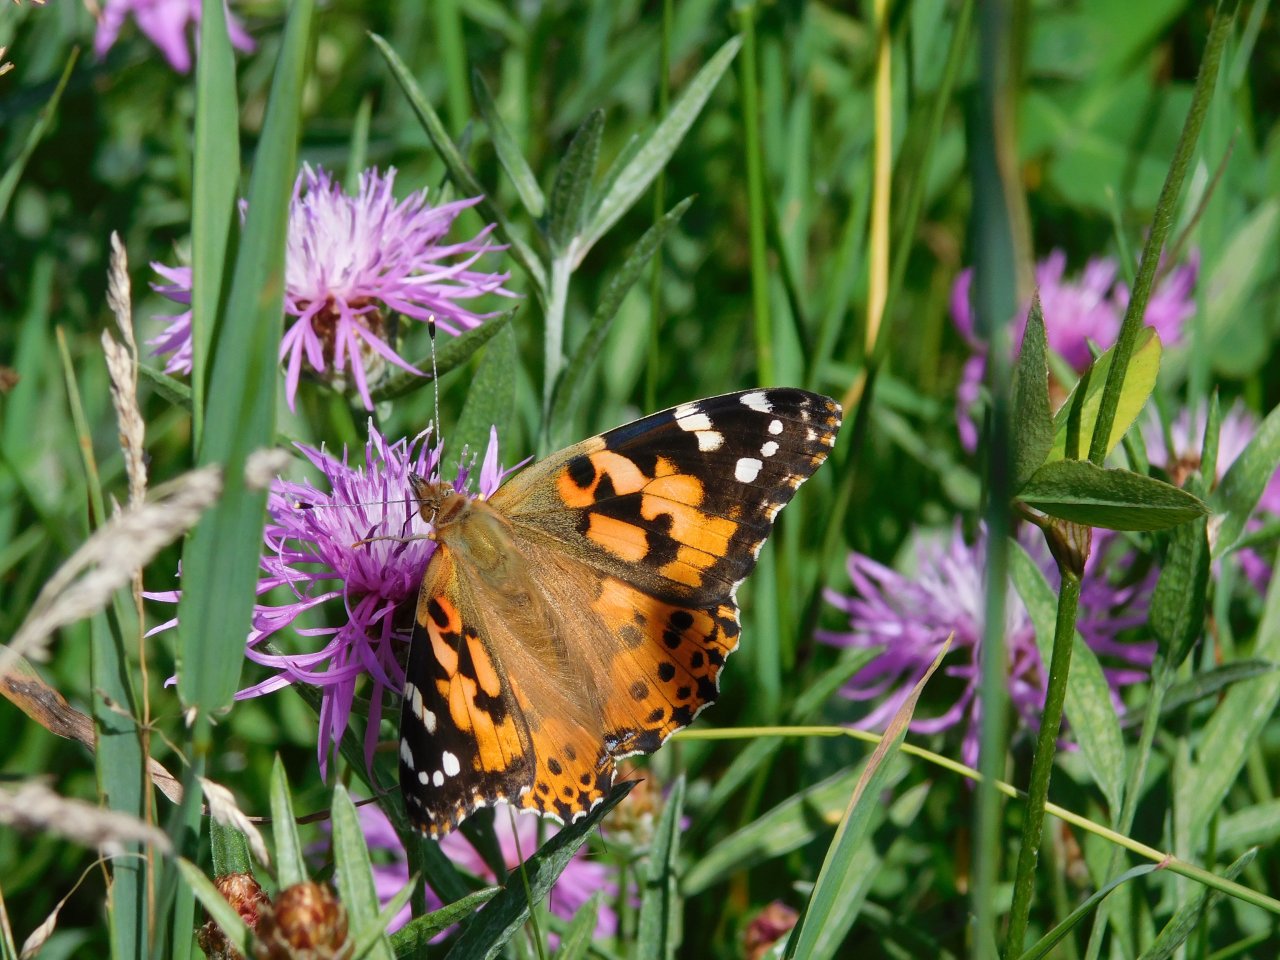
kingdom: Animalia
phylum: Arthropoda
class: Insecta
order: Lepidoptera
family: Nymphalidae
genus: Vanessa
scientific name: Vanessa cardui
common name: Painted Lady
